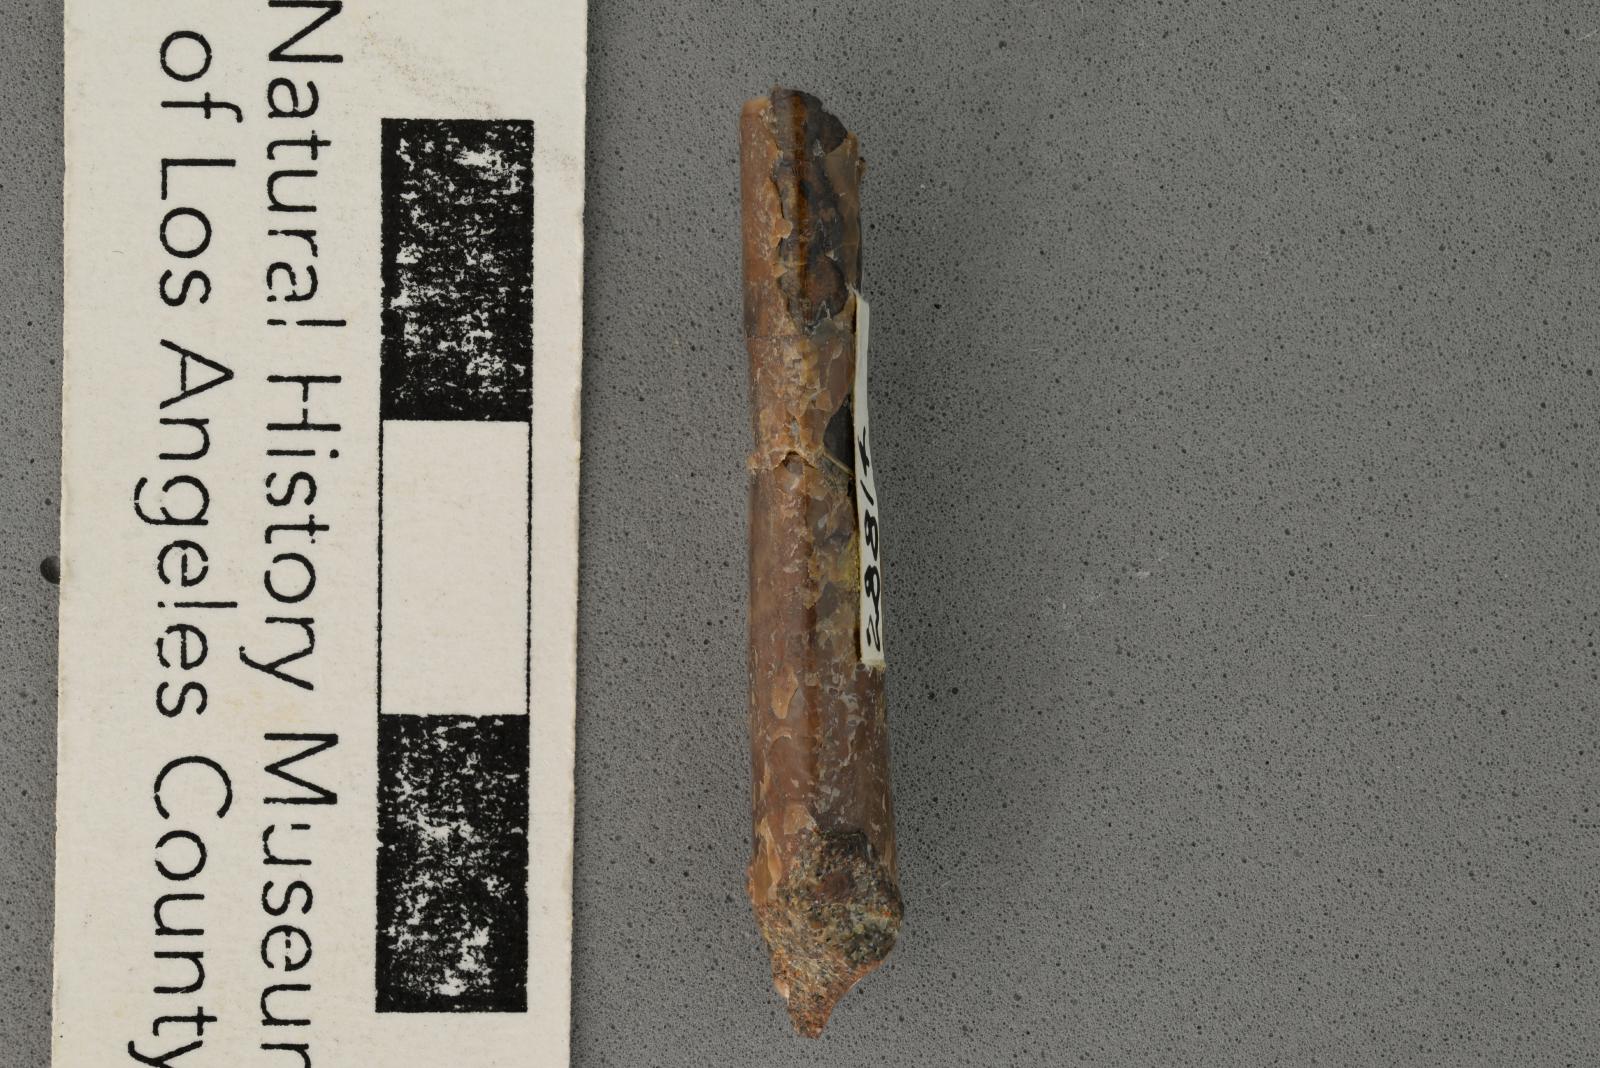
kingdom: Animalia
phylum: Mollusca
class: Cephalopoda
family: Baculitidae
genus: Baculites
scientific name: Baculites kirki
